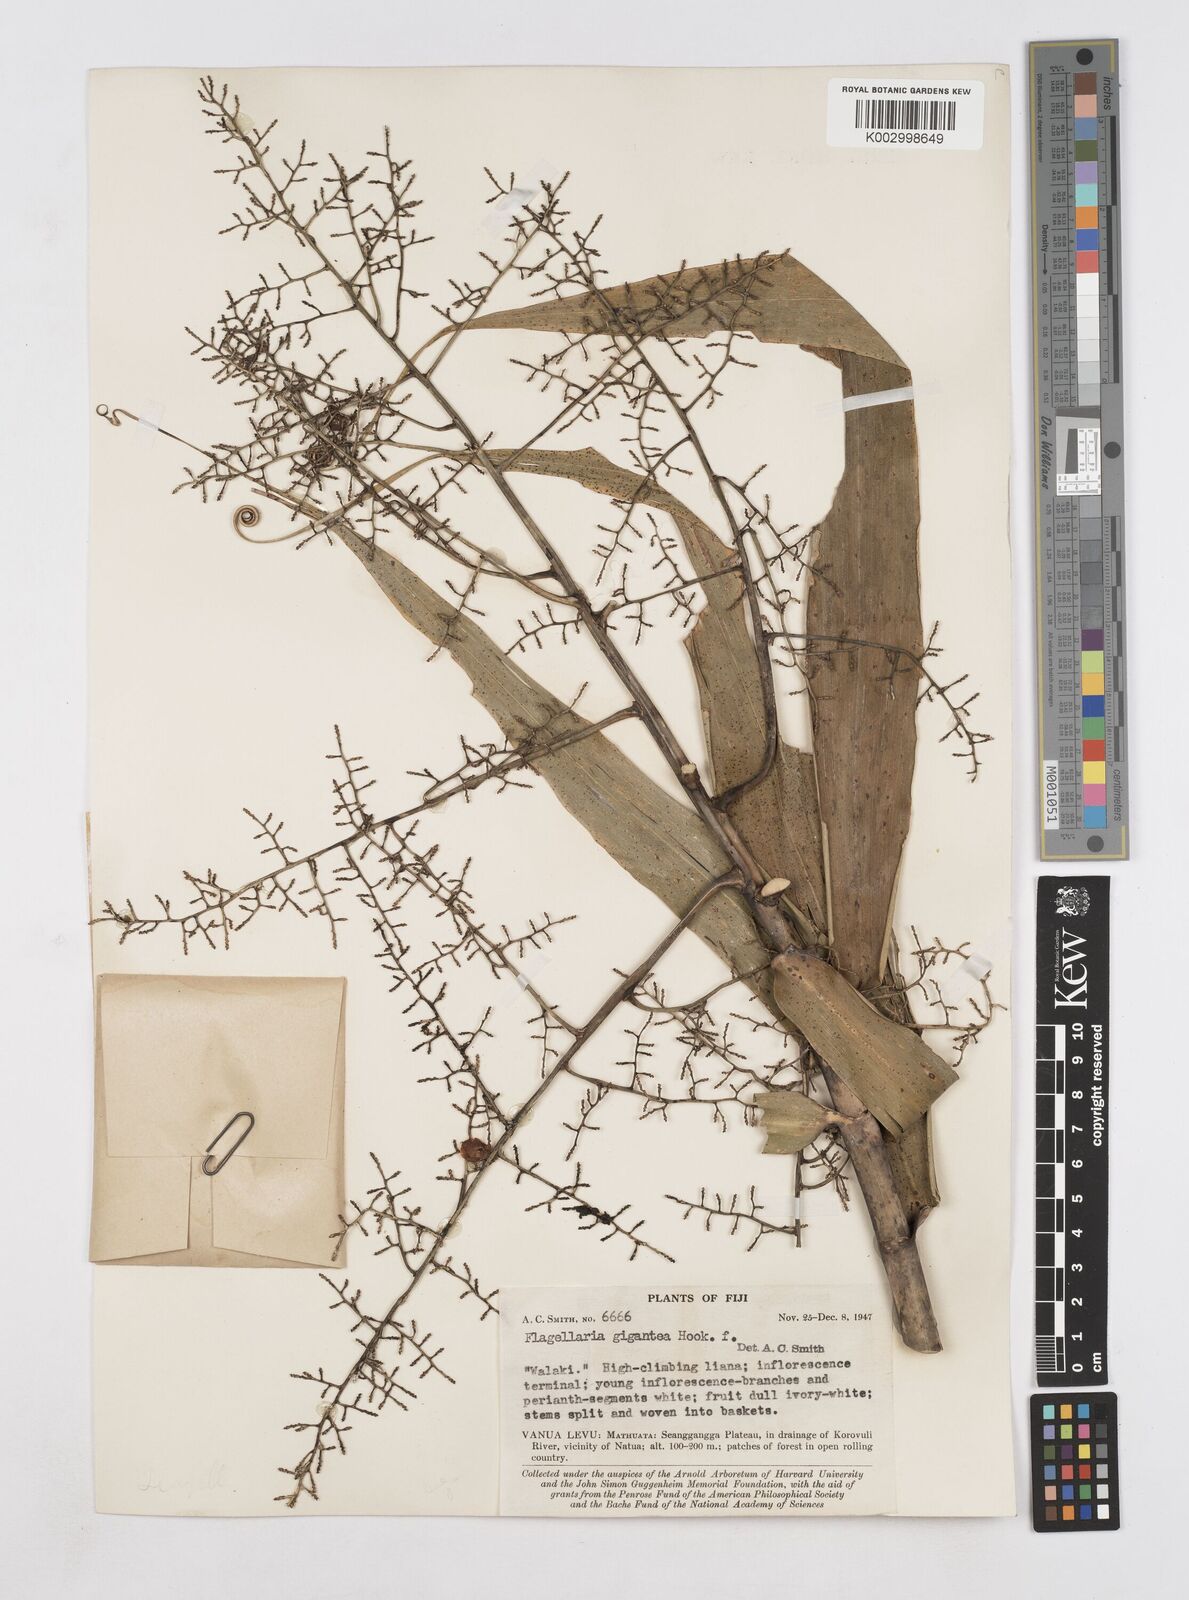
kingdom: Plantae
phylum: Tracheophyta
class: Liliopsida
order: Poales
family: Flagellariaceae
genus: Flagellaria
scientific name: Flagellaria gigantea
